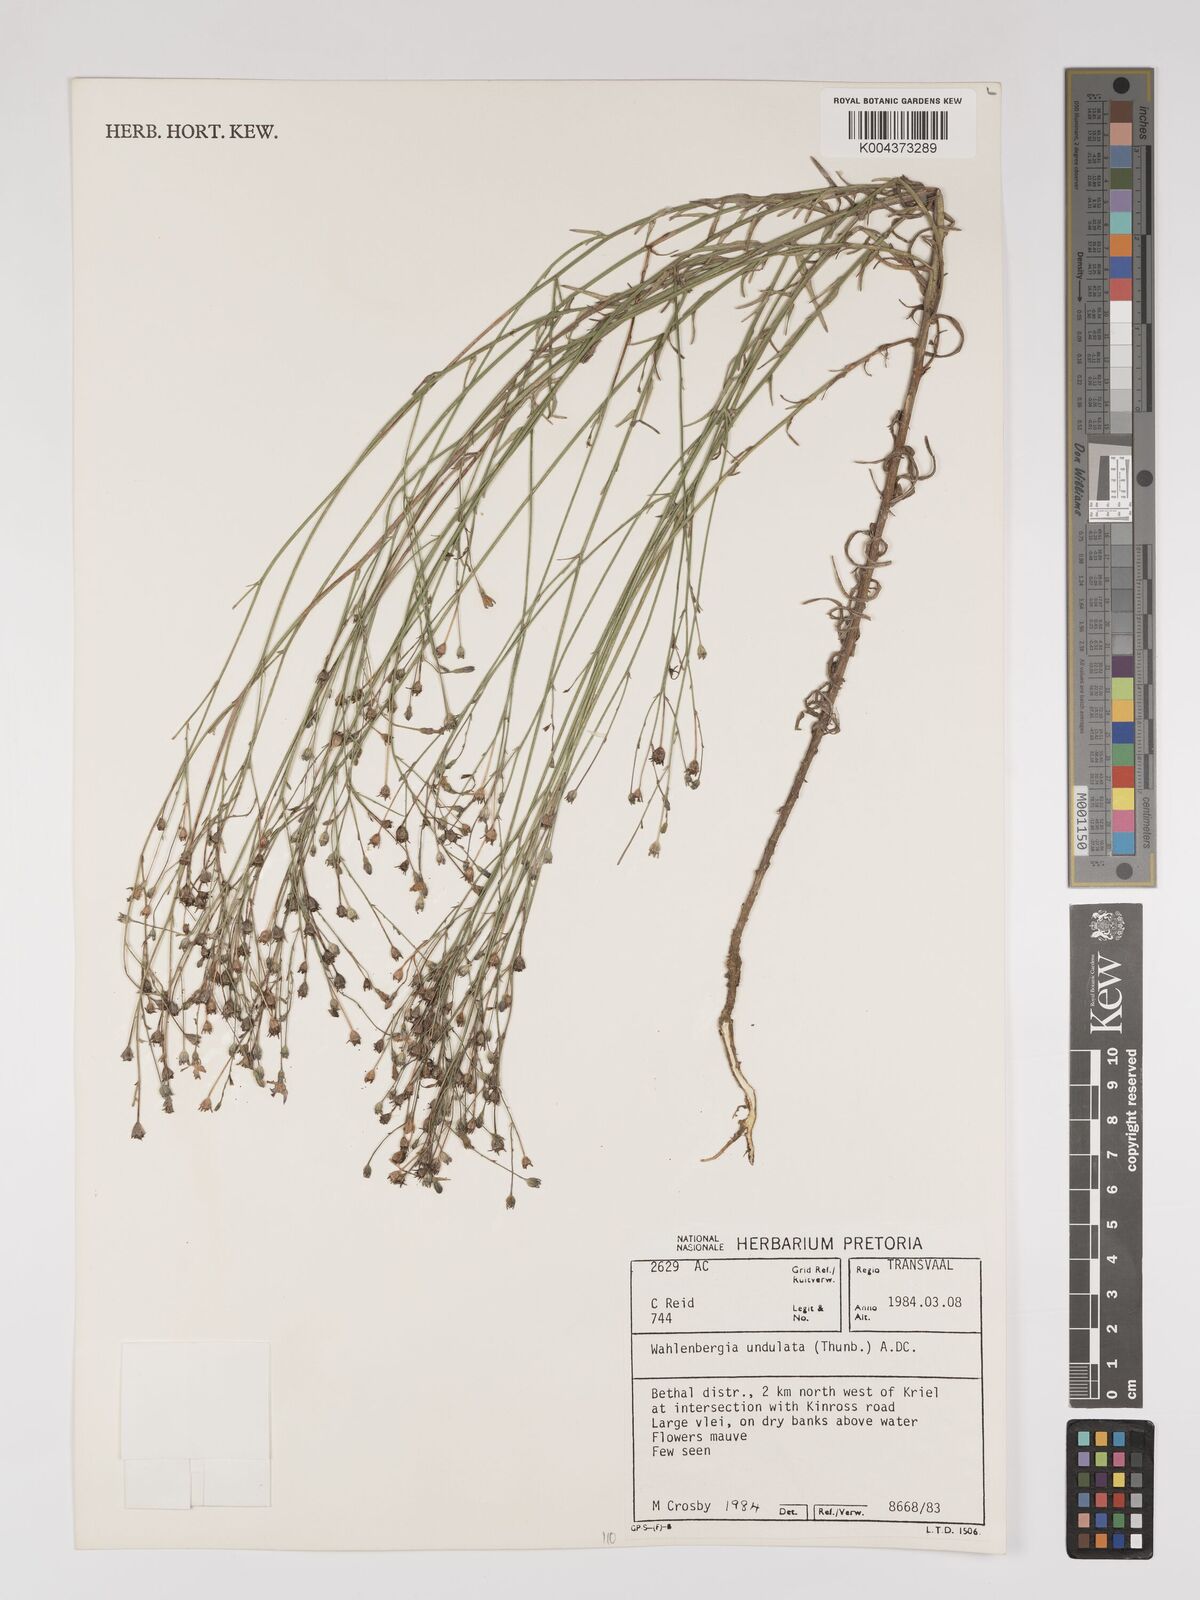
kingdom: Plantae
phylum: Tracheophyta
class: Magnoliopsida
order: Asterales
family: Campanulaceae
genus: Wahlenbergia
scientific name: Wahlenbergia undulata
